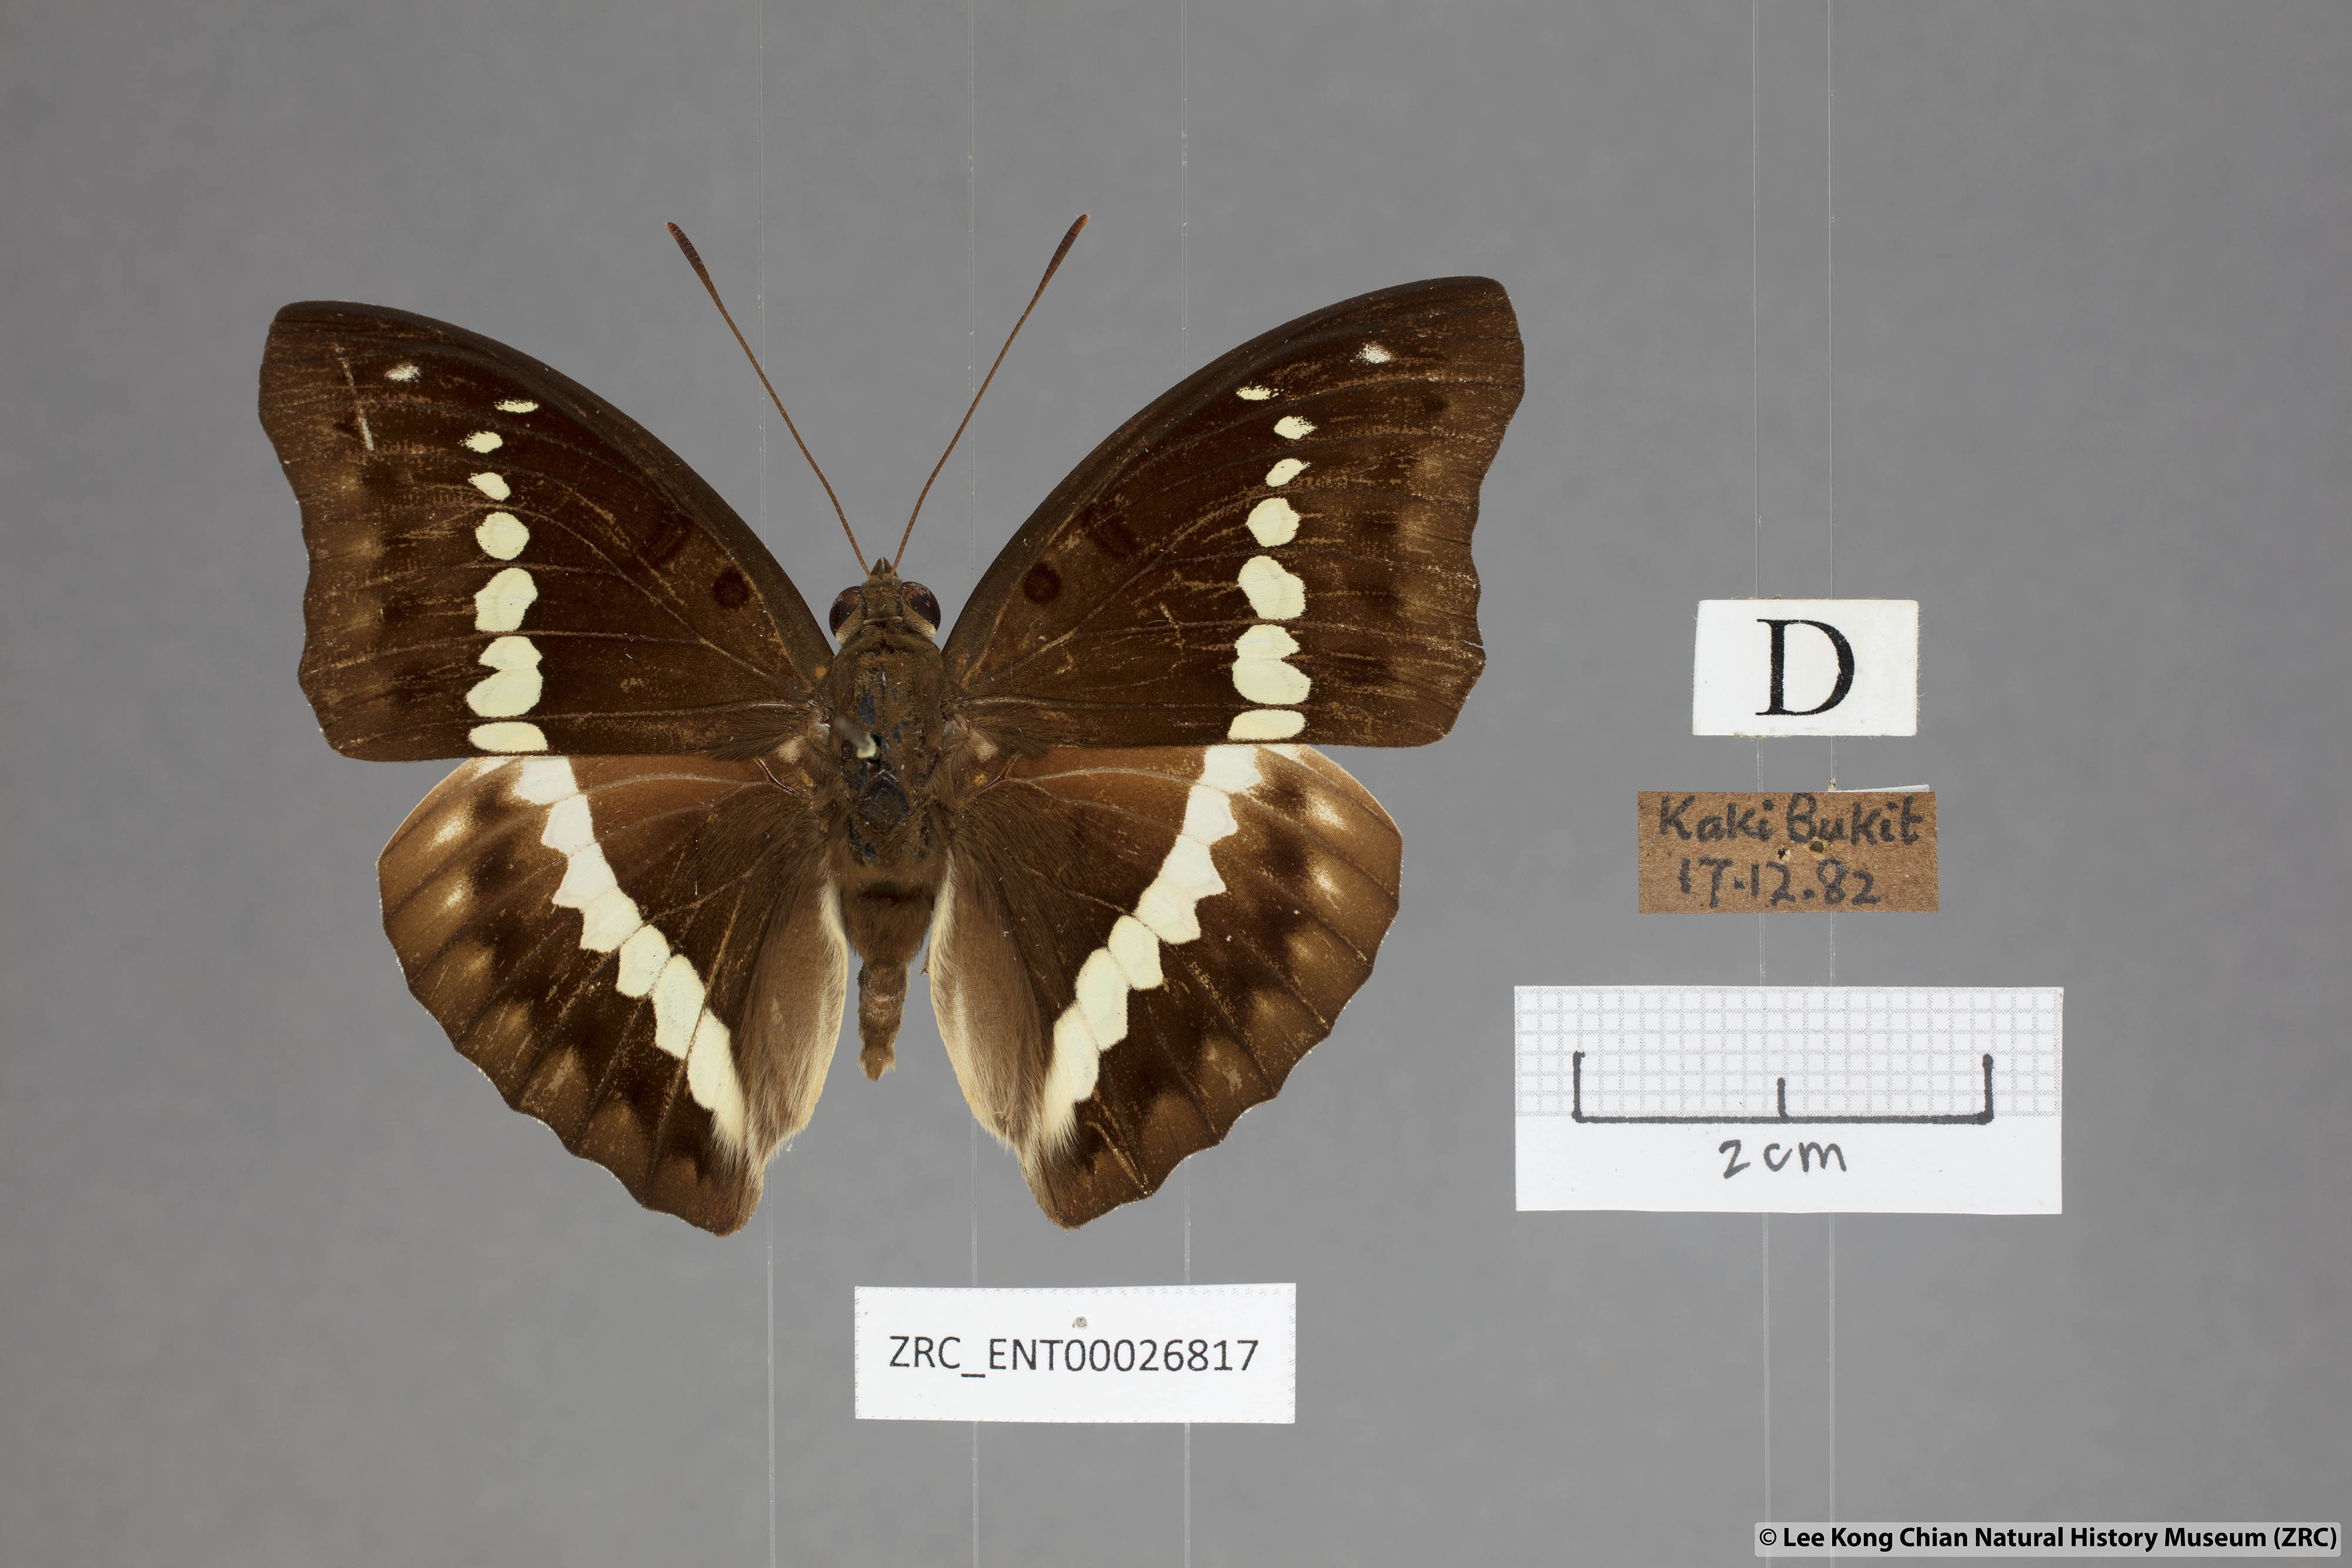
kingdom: Animalia
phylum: Arthropoda
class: Insecta
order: Lepidoptera
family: Nymphalidae
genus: Euthalia
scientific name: Euthalia Bassarona teuta
